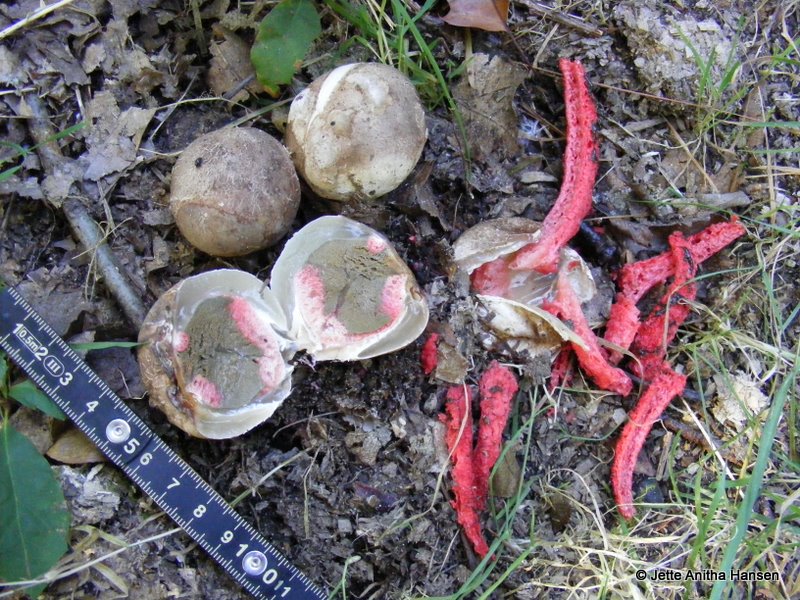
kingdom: Fungi
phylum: Basidiomycota
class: Agaricomycetes
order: Phallales
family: Phallaceae
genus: Clathrus
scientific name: Clathrus archeri
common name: blækspruttesvamp
